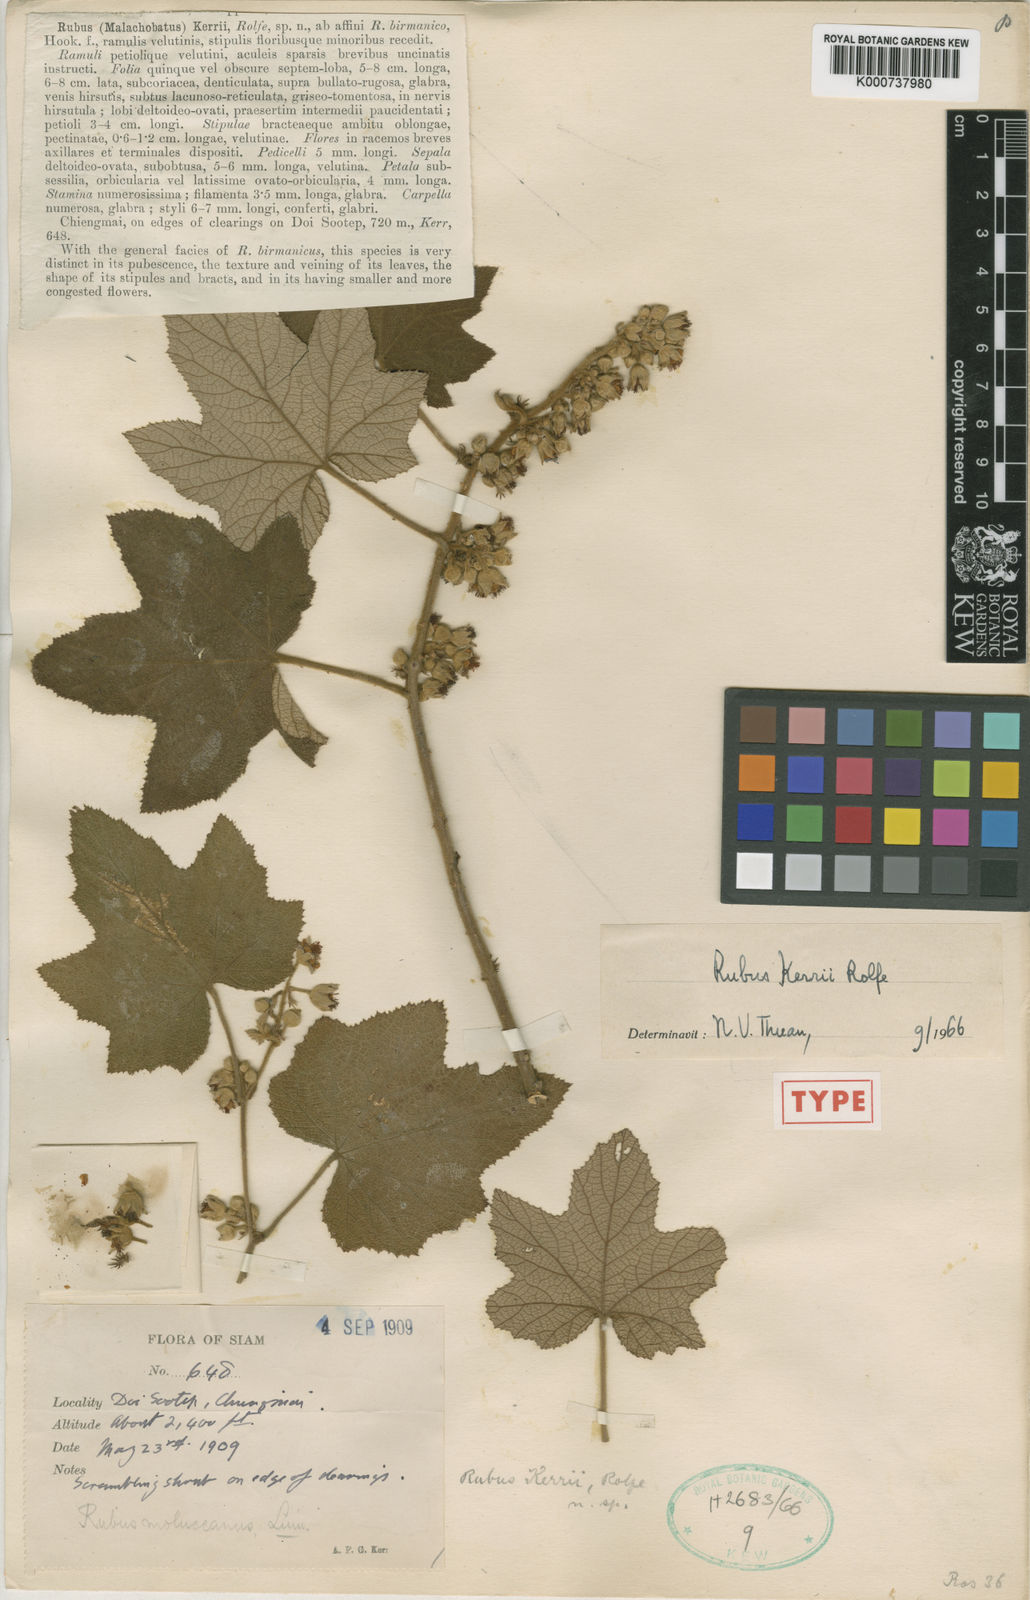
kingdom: Plantae
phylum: Tracheophyta
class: Magnoliopsida
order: Rosales
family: Rosaceae
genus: Rubus
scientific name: Rubus rufus
